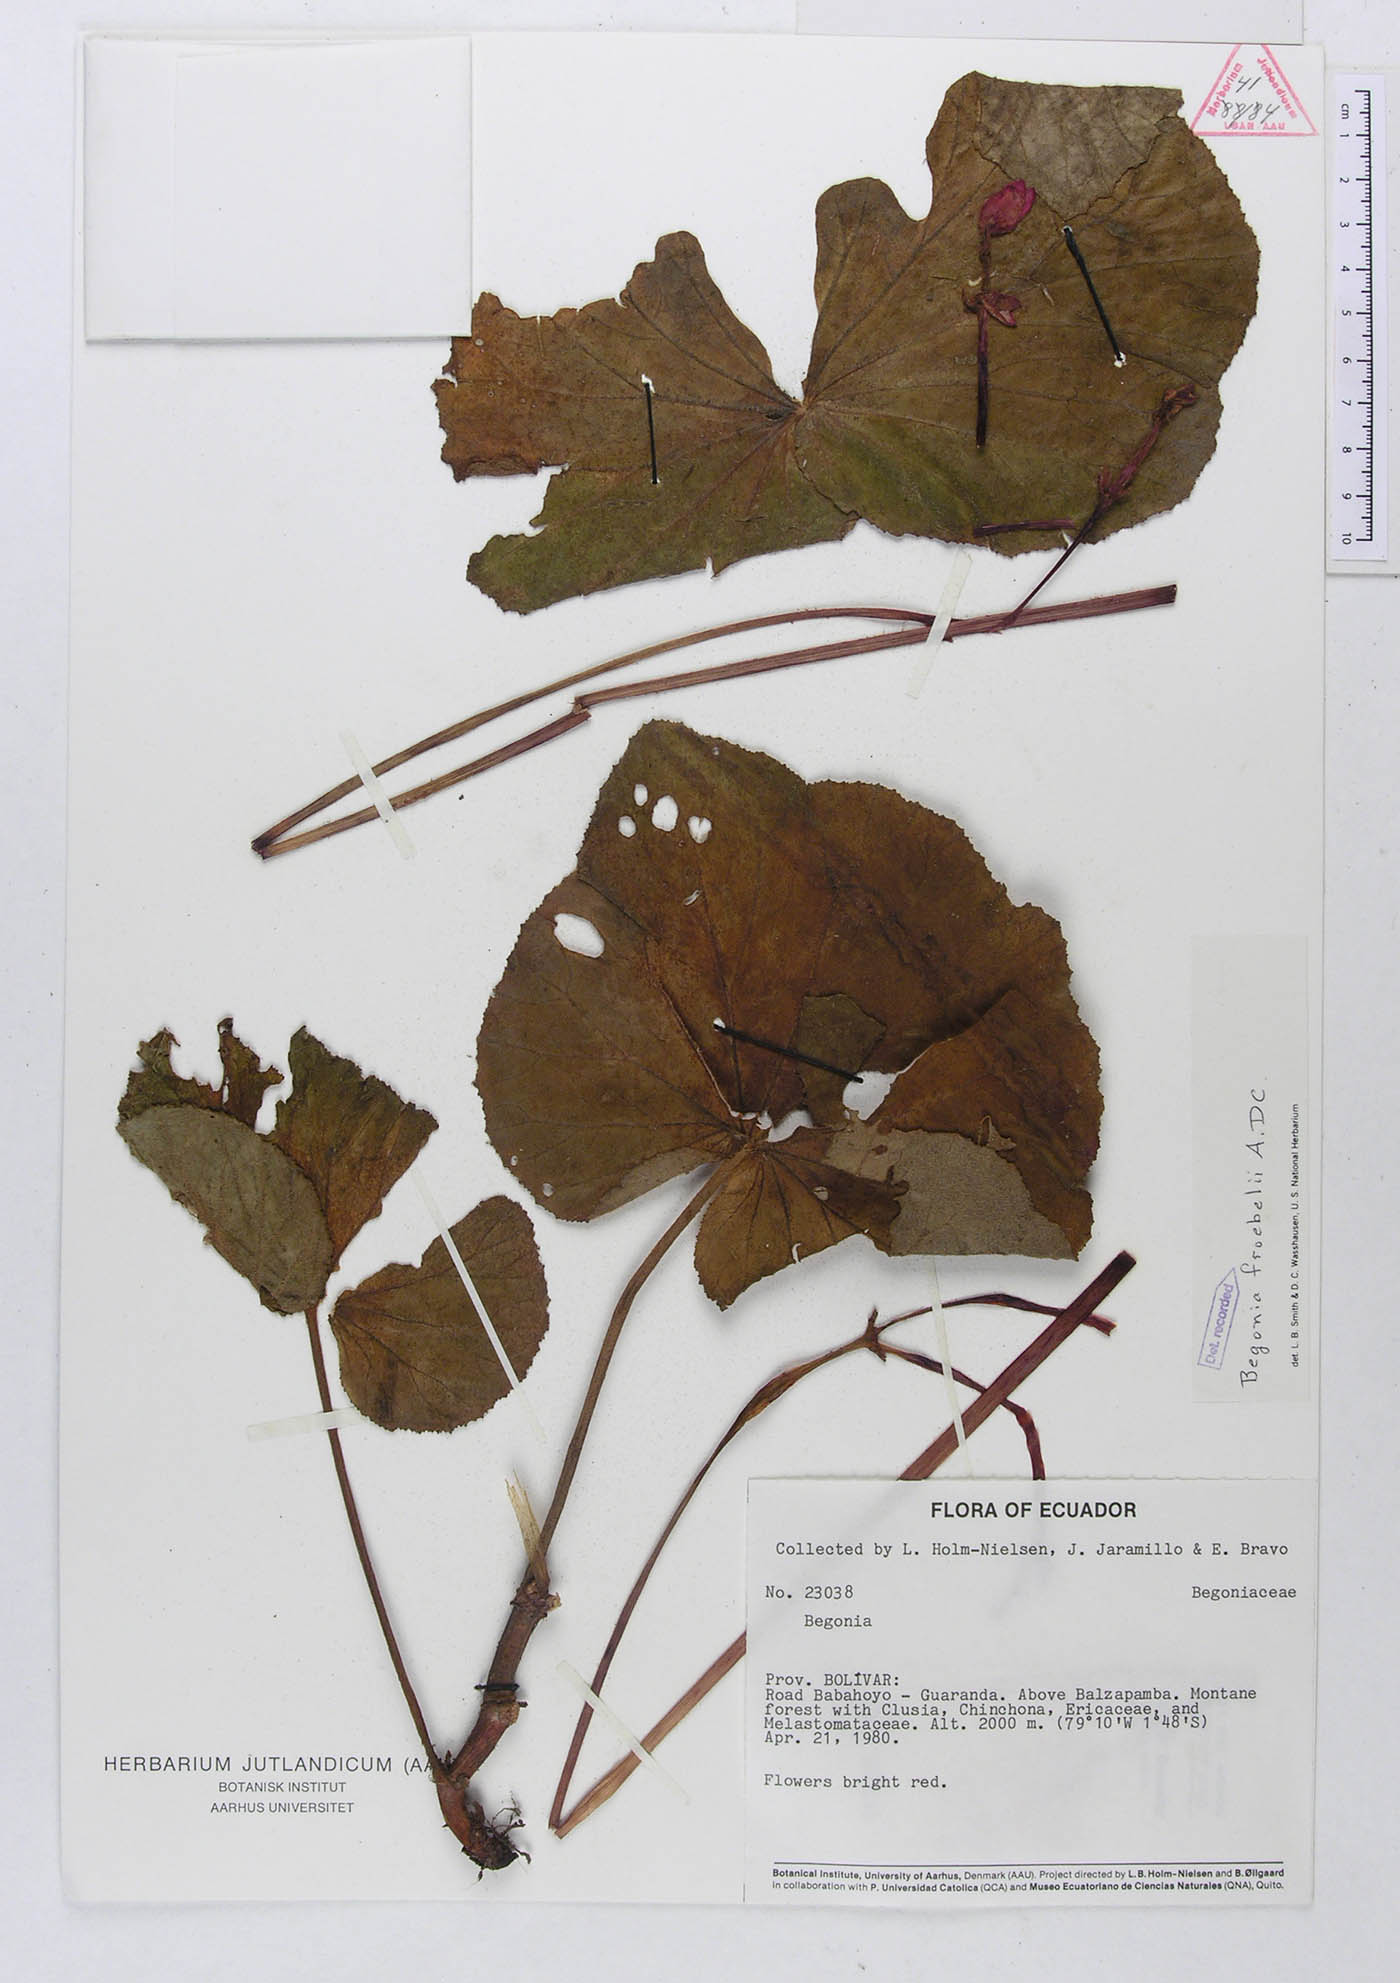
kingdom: Plantae
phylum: Tracheophyta
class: Magnoliopsida
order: Cucurbitales
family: Begoniaceae
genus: Begonia
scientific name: Begonia froebelii
